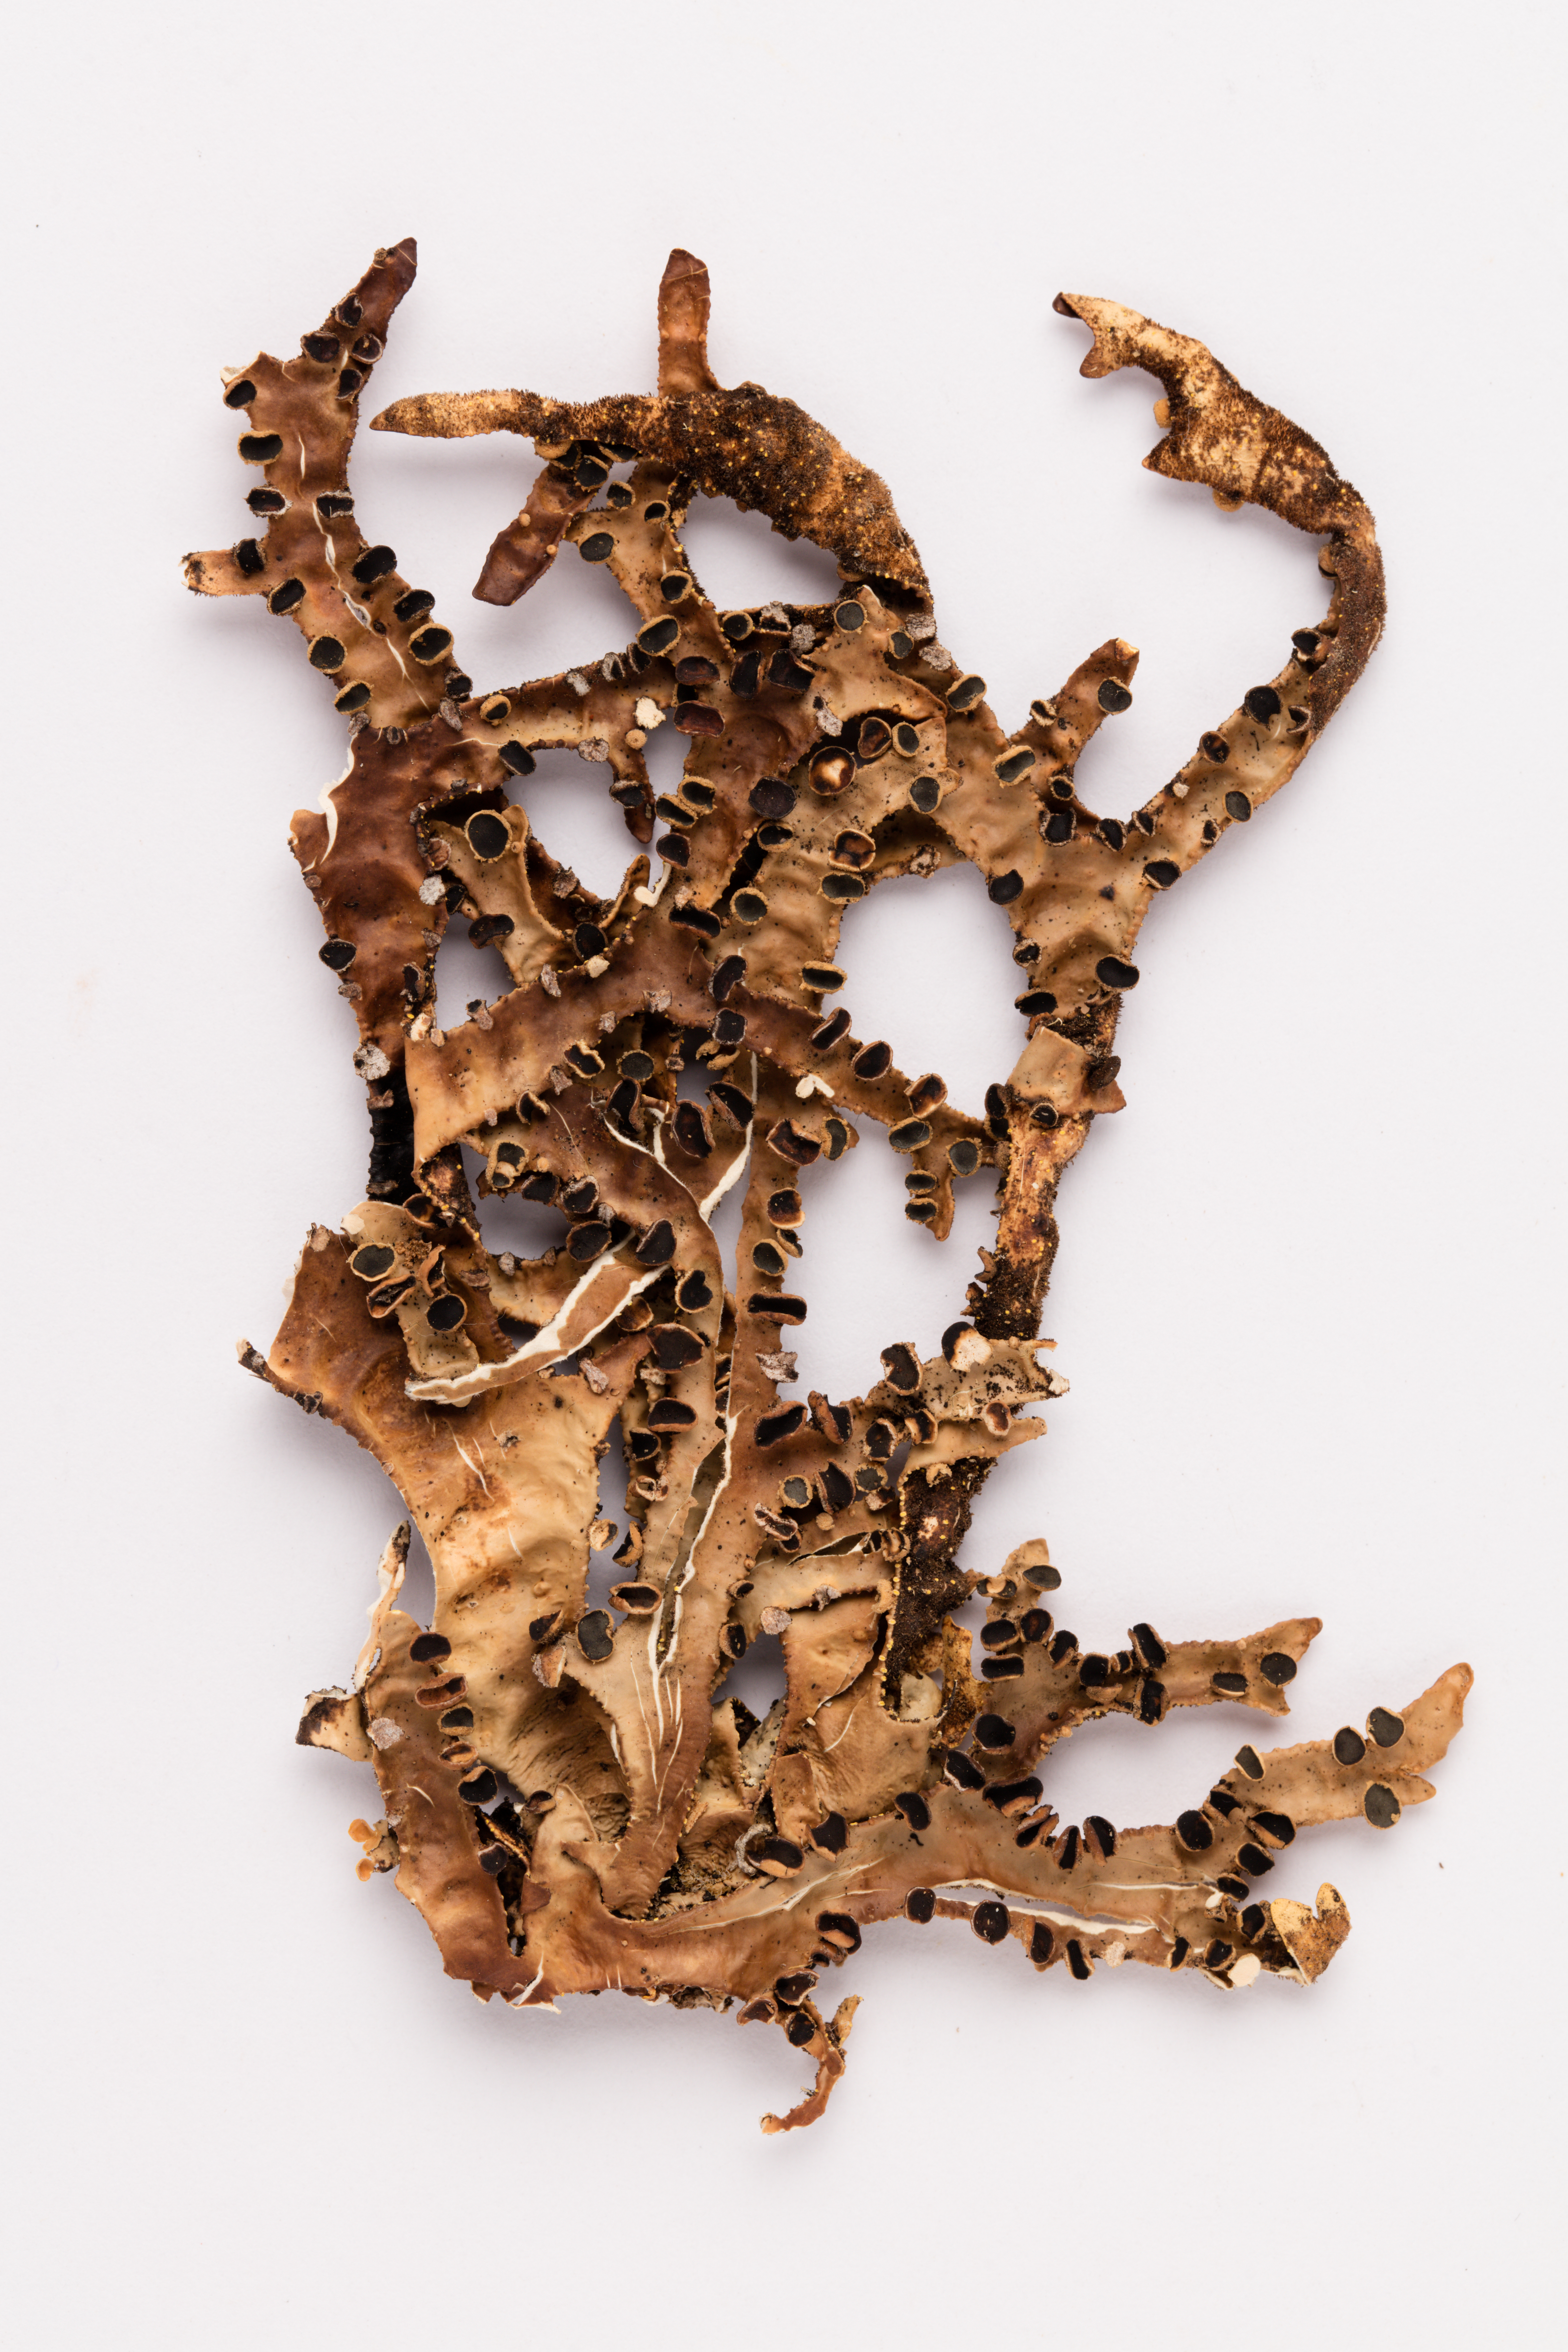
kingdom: Fungi
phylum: Ascomycota
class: Lecanoromycetes
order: Peltigerales
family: Lobariaceae
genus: Pseudocyphellaria
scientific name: Pseudocyphellaria carpoloma
